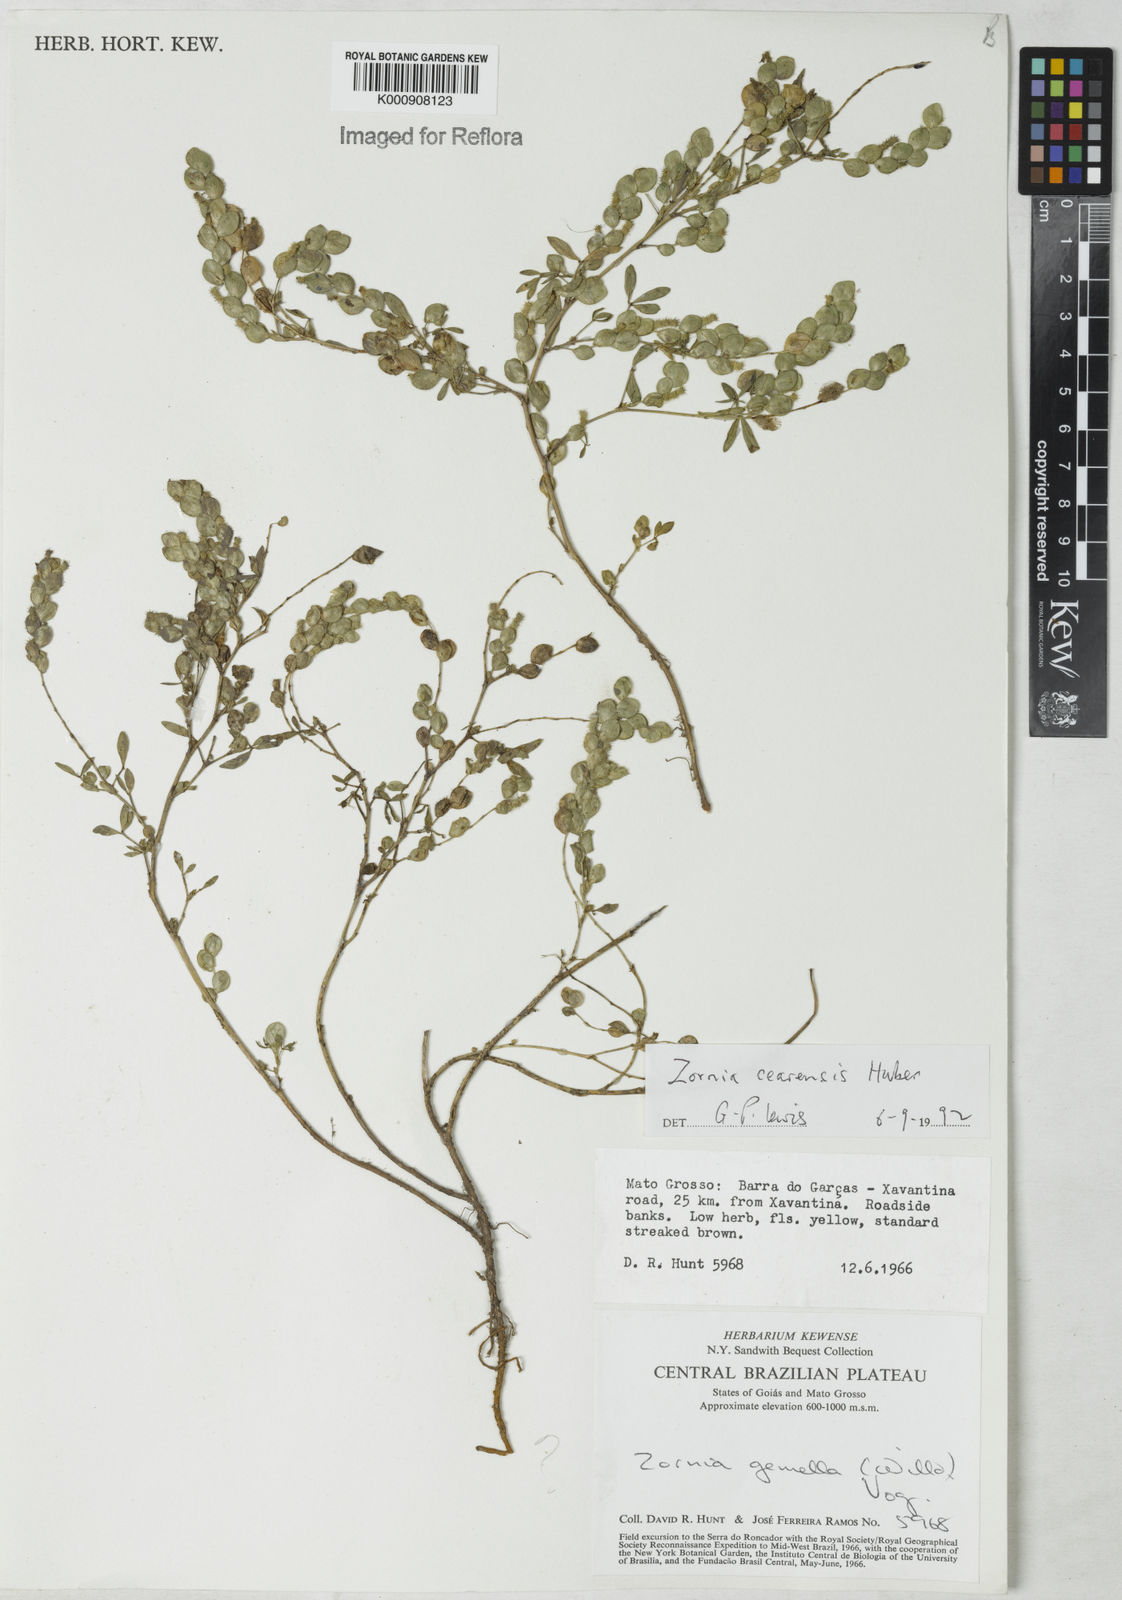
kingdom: Plantae
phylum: Tracheophyta
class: Magnoliopsida
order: Fabales
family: Fabaceae
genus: Zornia
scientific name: Zornia cearensis
